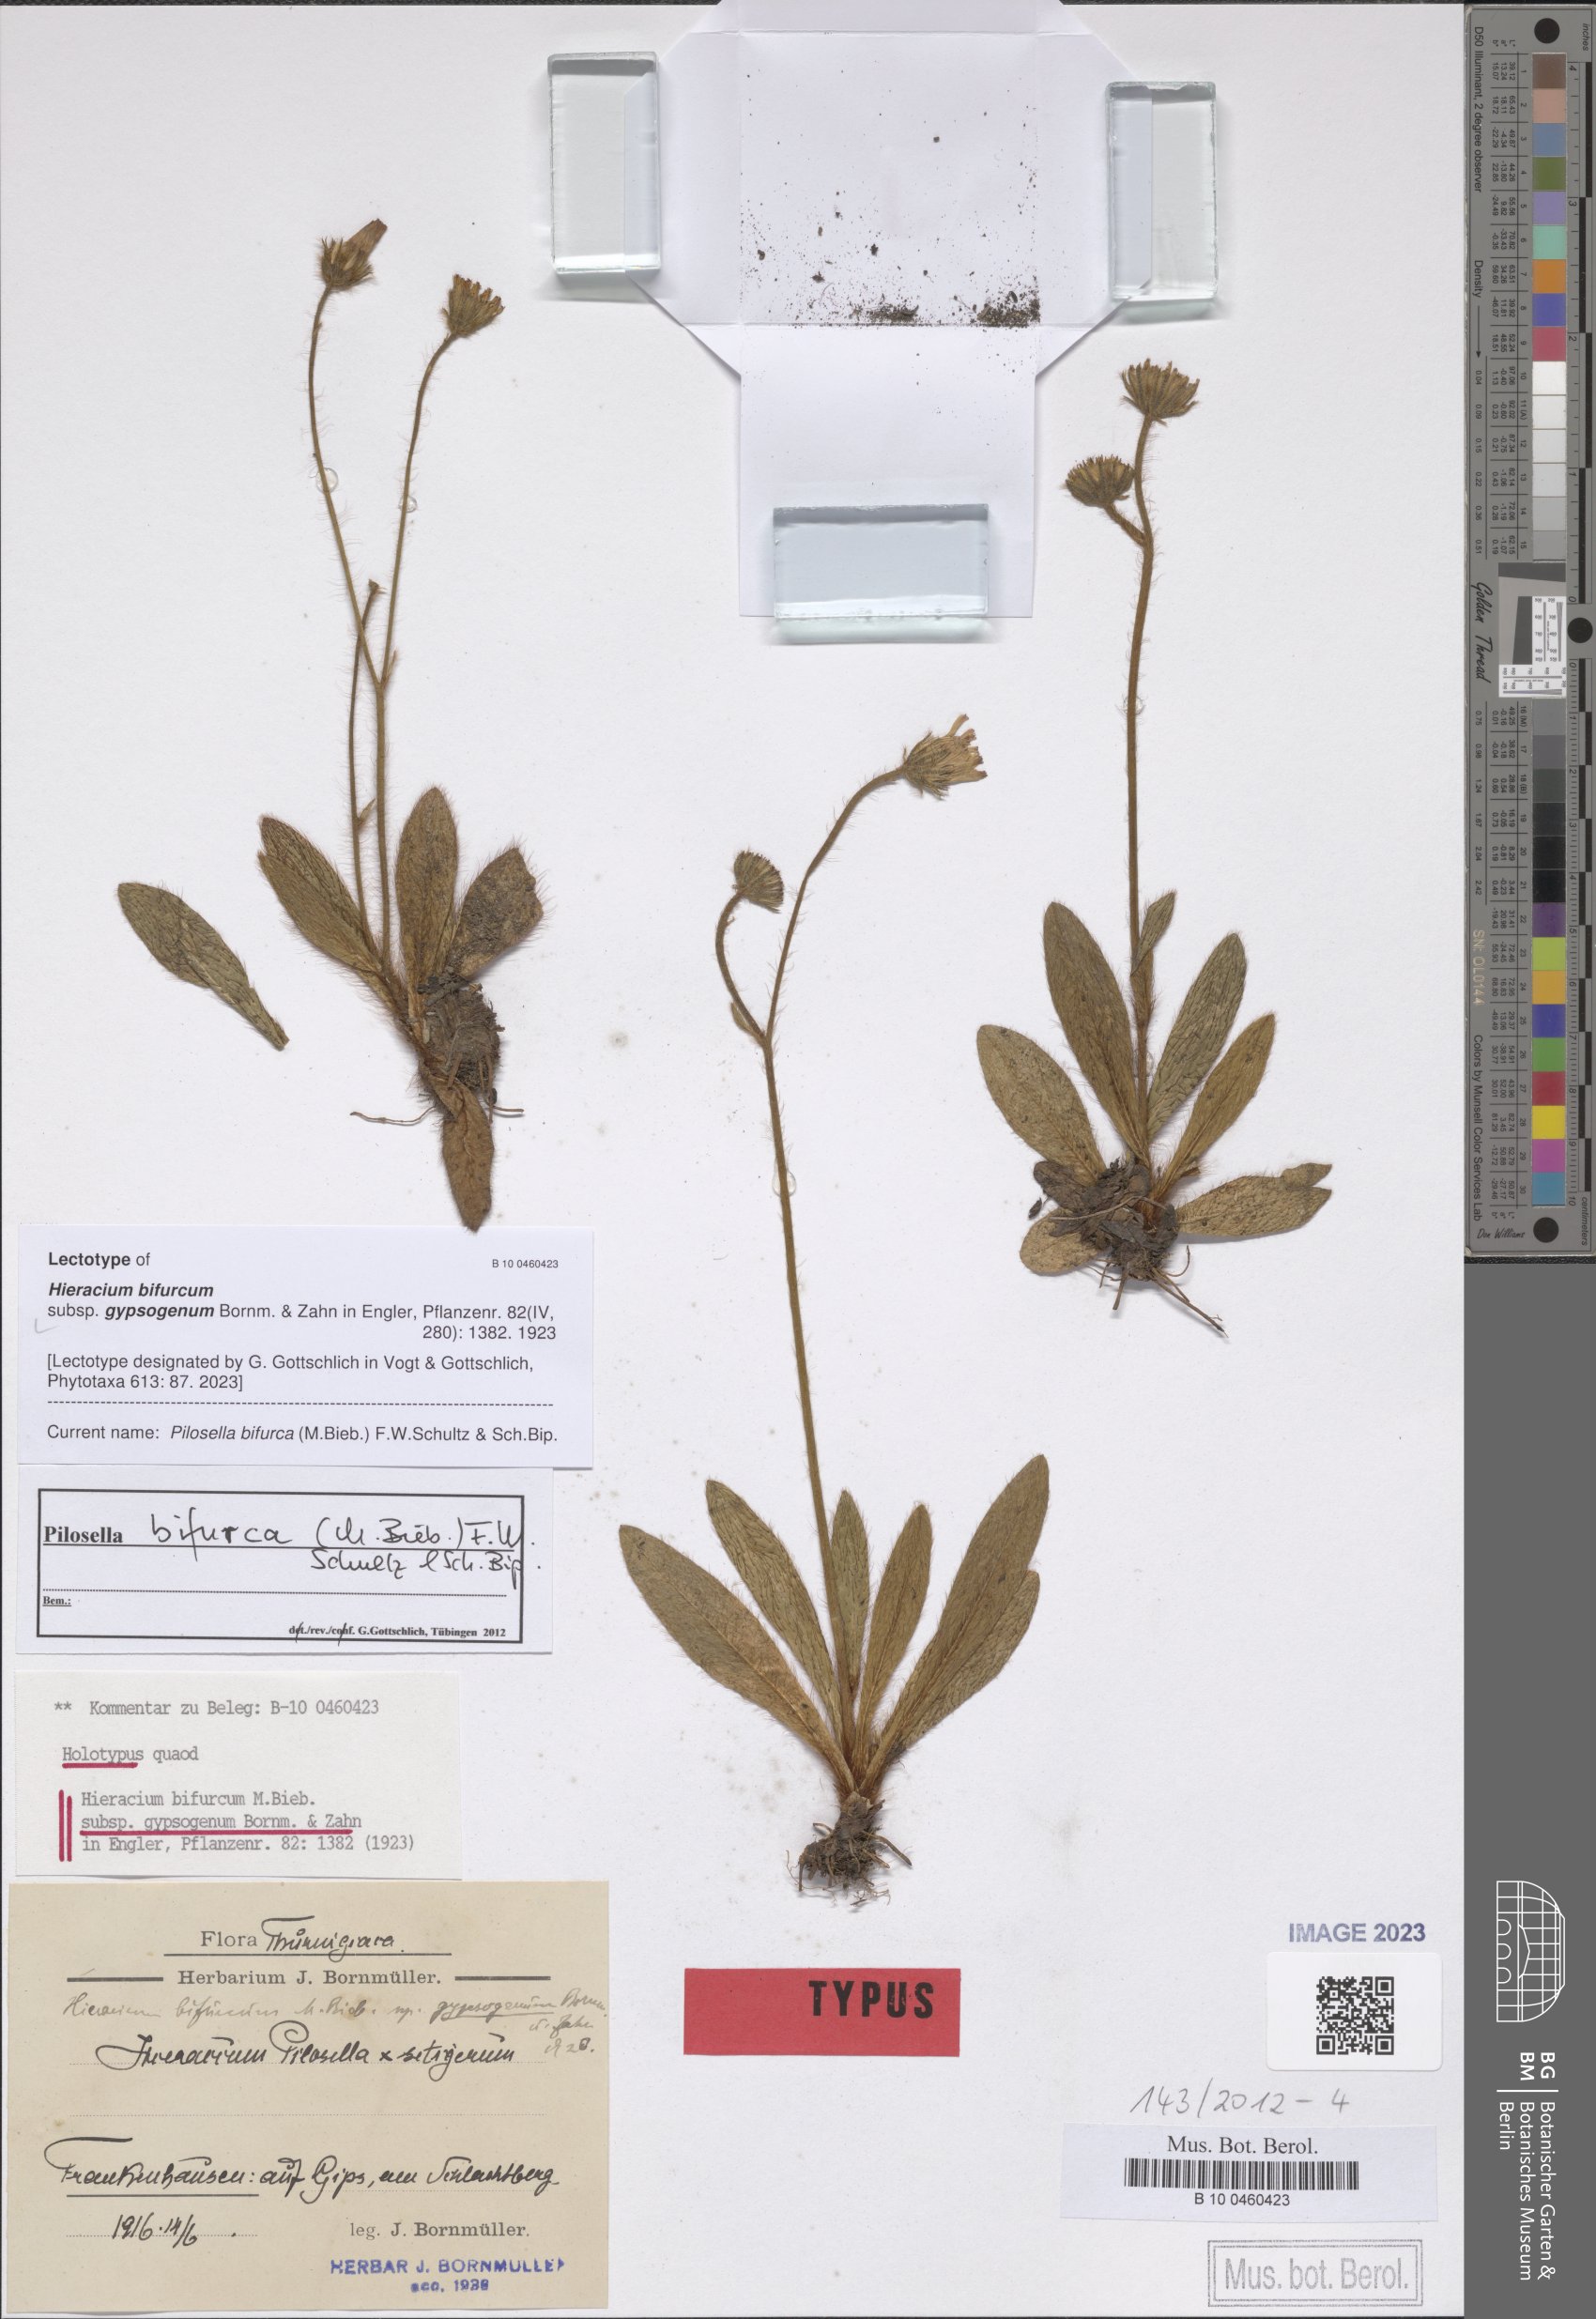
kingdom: Plantae
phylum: Tracheophyta
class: Magnoliopsida
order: Asterales
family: Asteraceae
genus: Pilosella
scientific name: Pilosella bifurca
